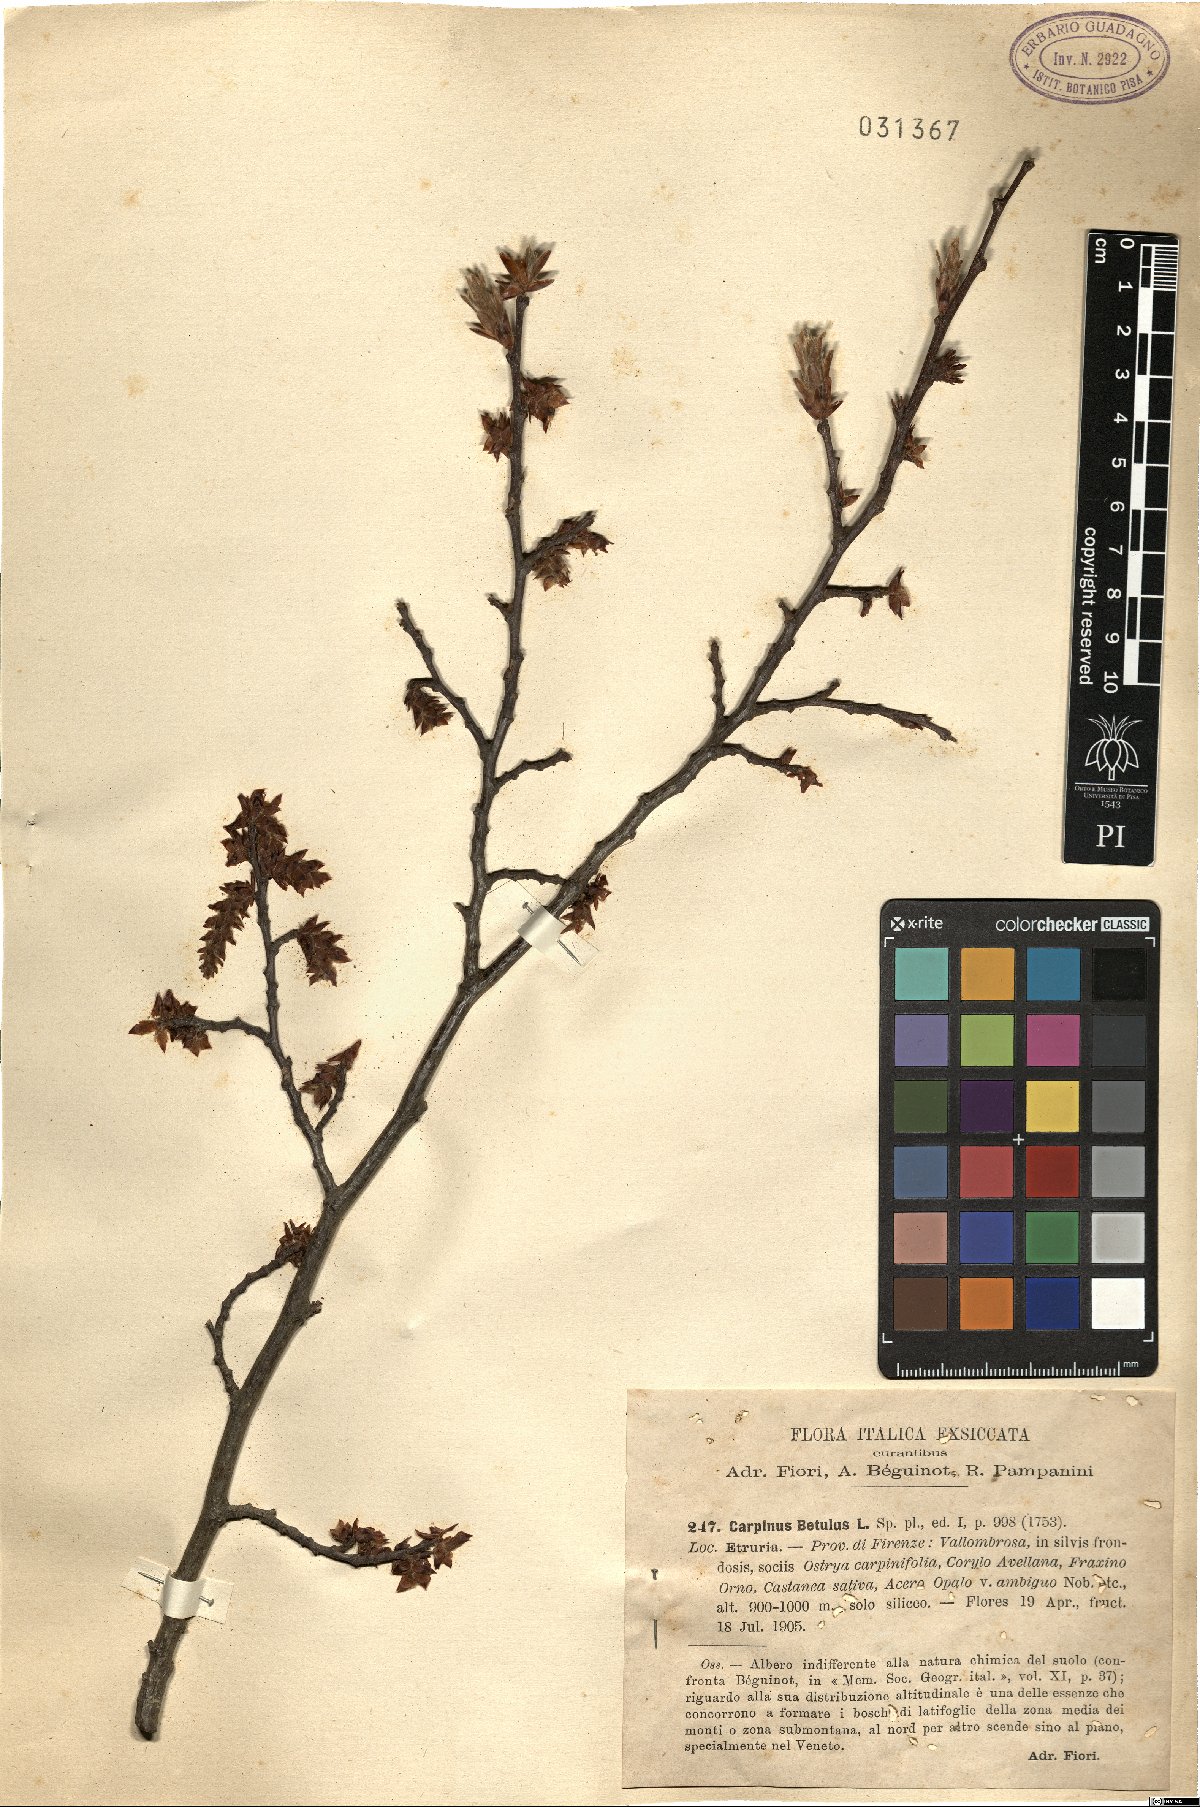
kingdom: Plantae
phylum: Tracheophyta
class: Magnoliopsida
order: Fagales
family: Betulaceae
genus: Carpinus
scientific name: Carpinus betulus
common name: Hornbeam
